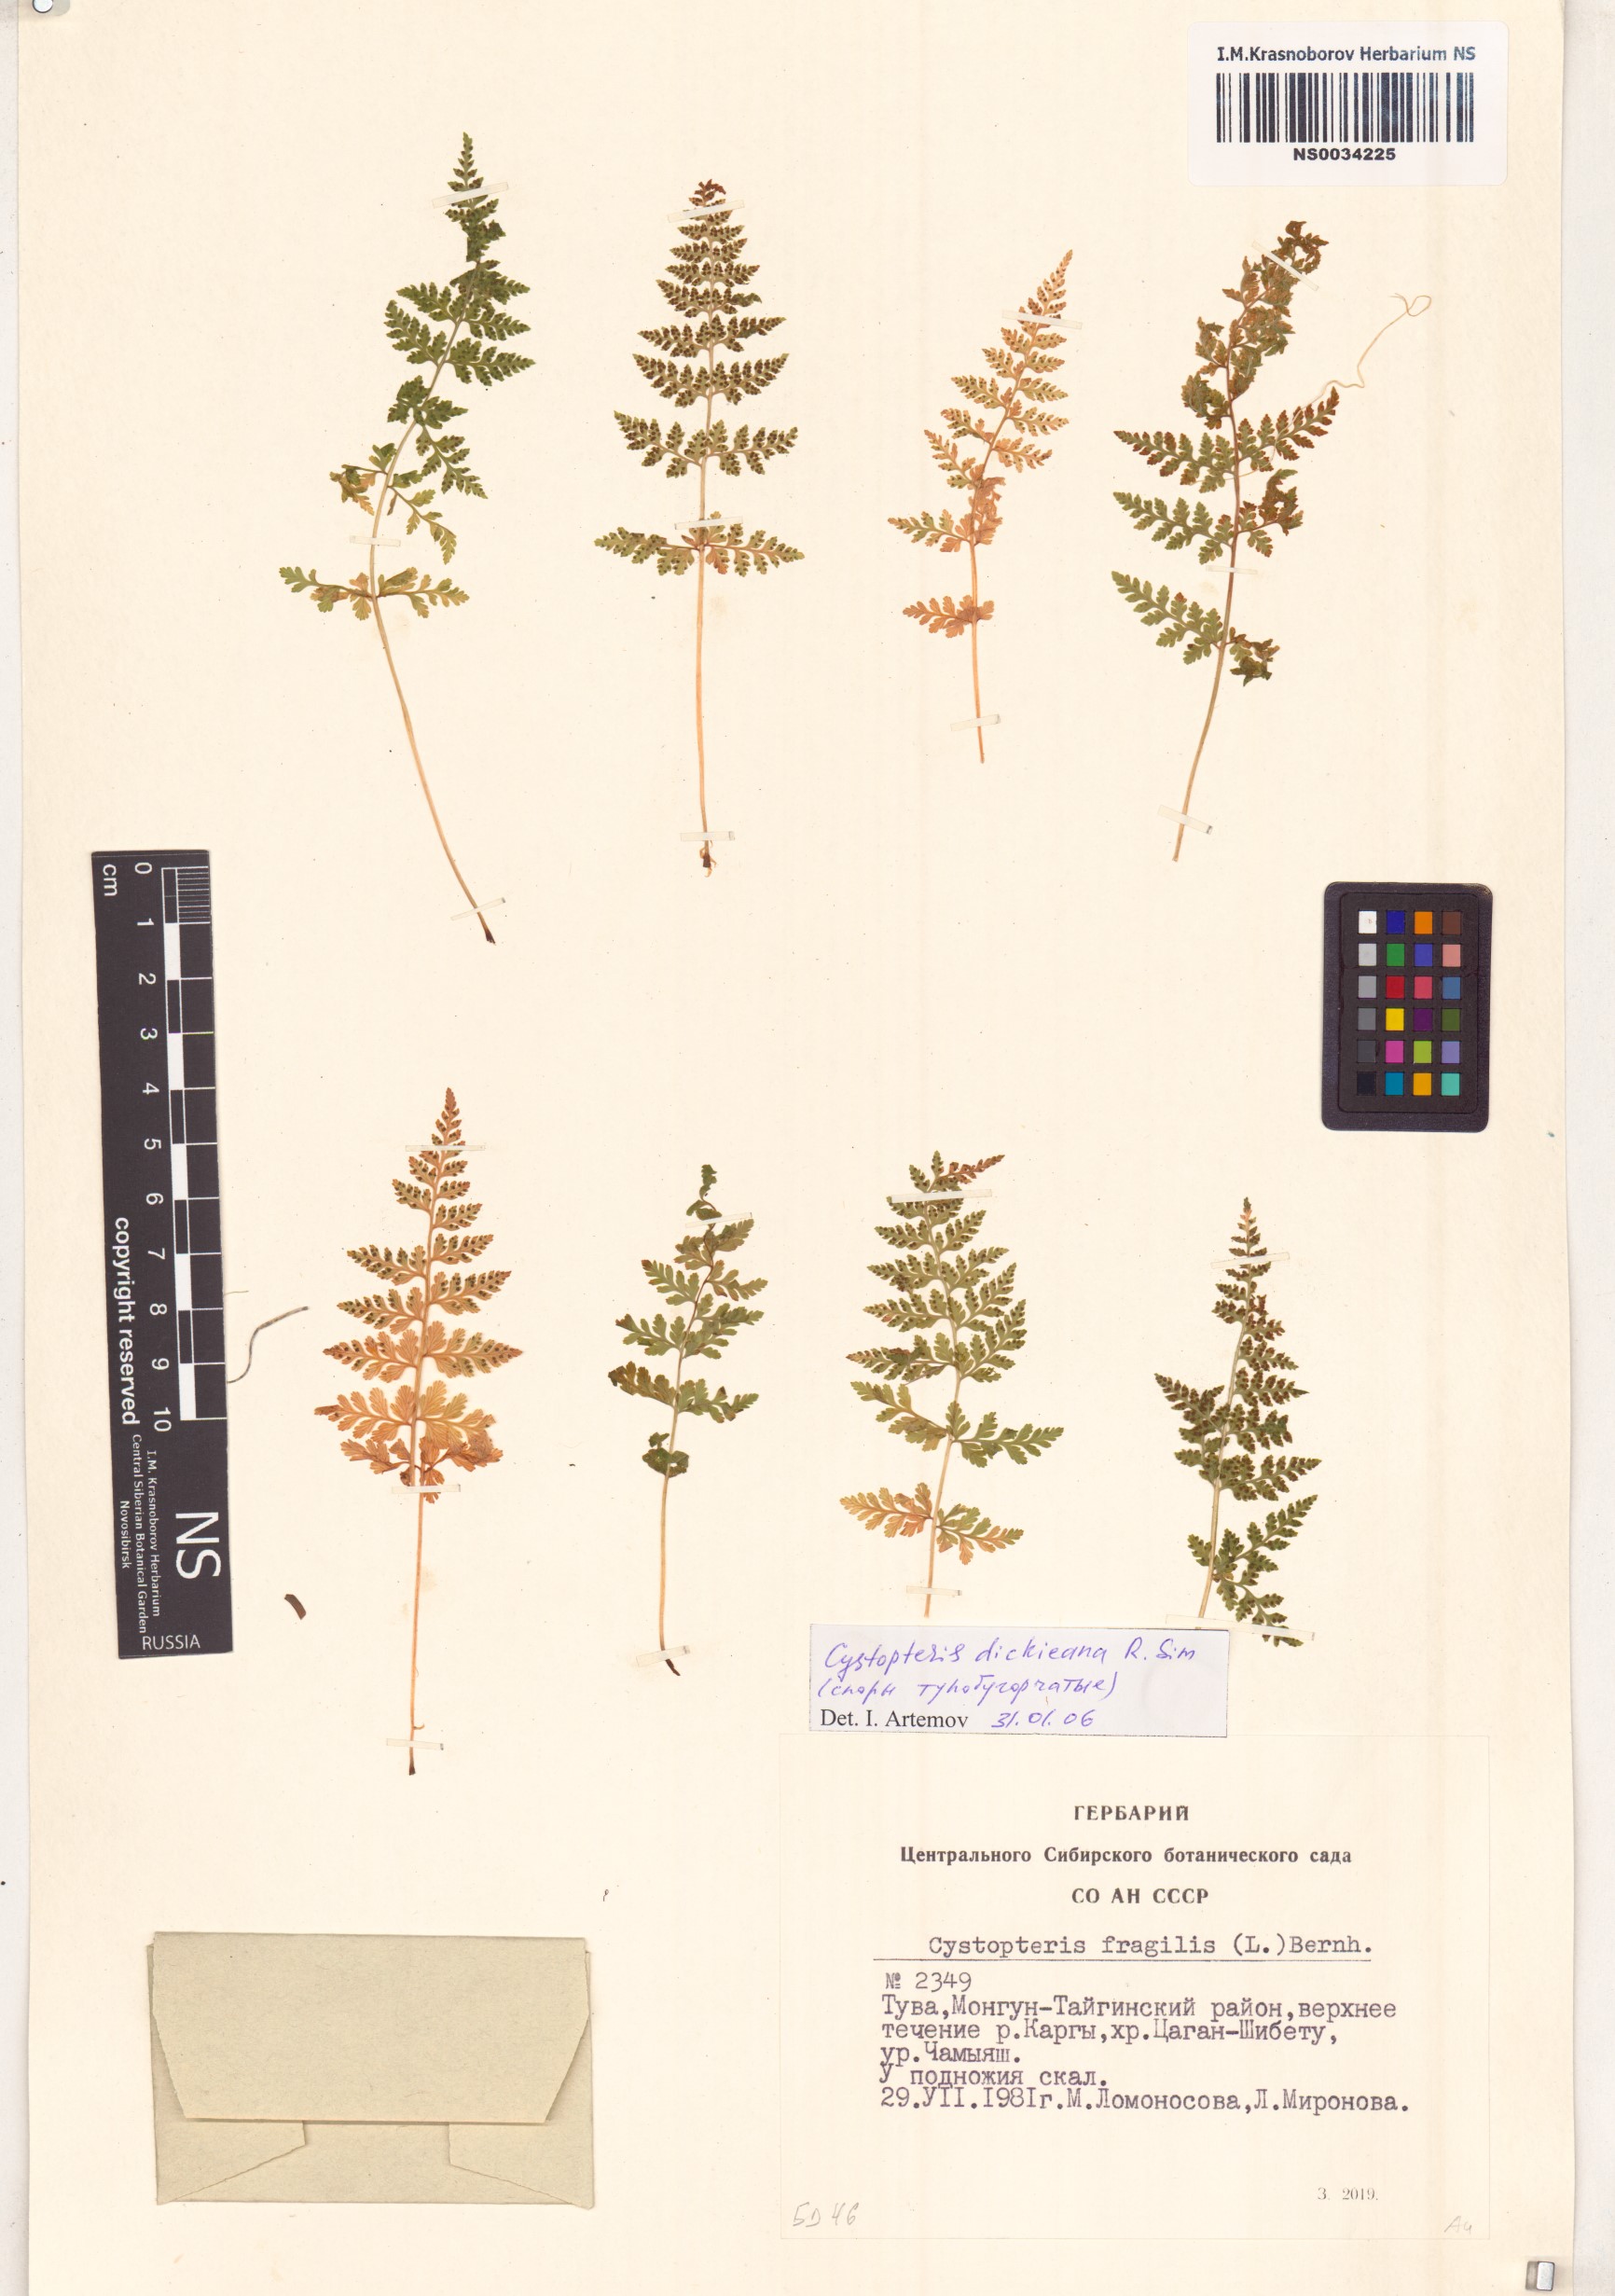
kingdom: Plantae
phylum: Tracheophyta
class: Polypodiopsida
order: Polypodiales
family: Cystopteridaceae
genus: Cystopteris
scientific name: Cystopteris dickieana
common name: Dickie's bladder-fern
